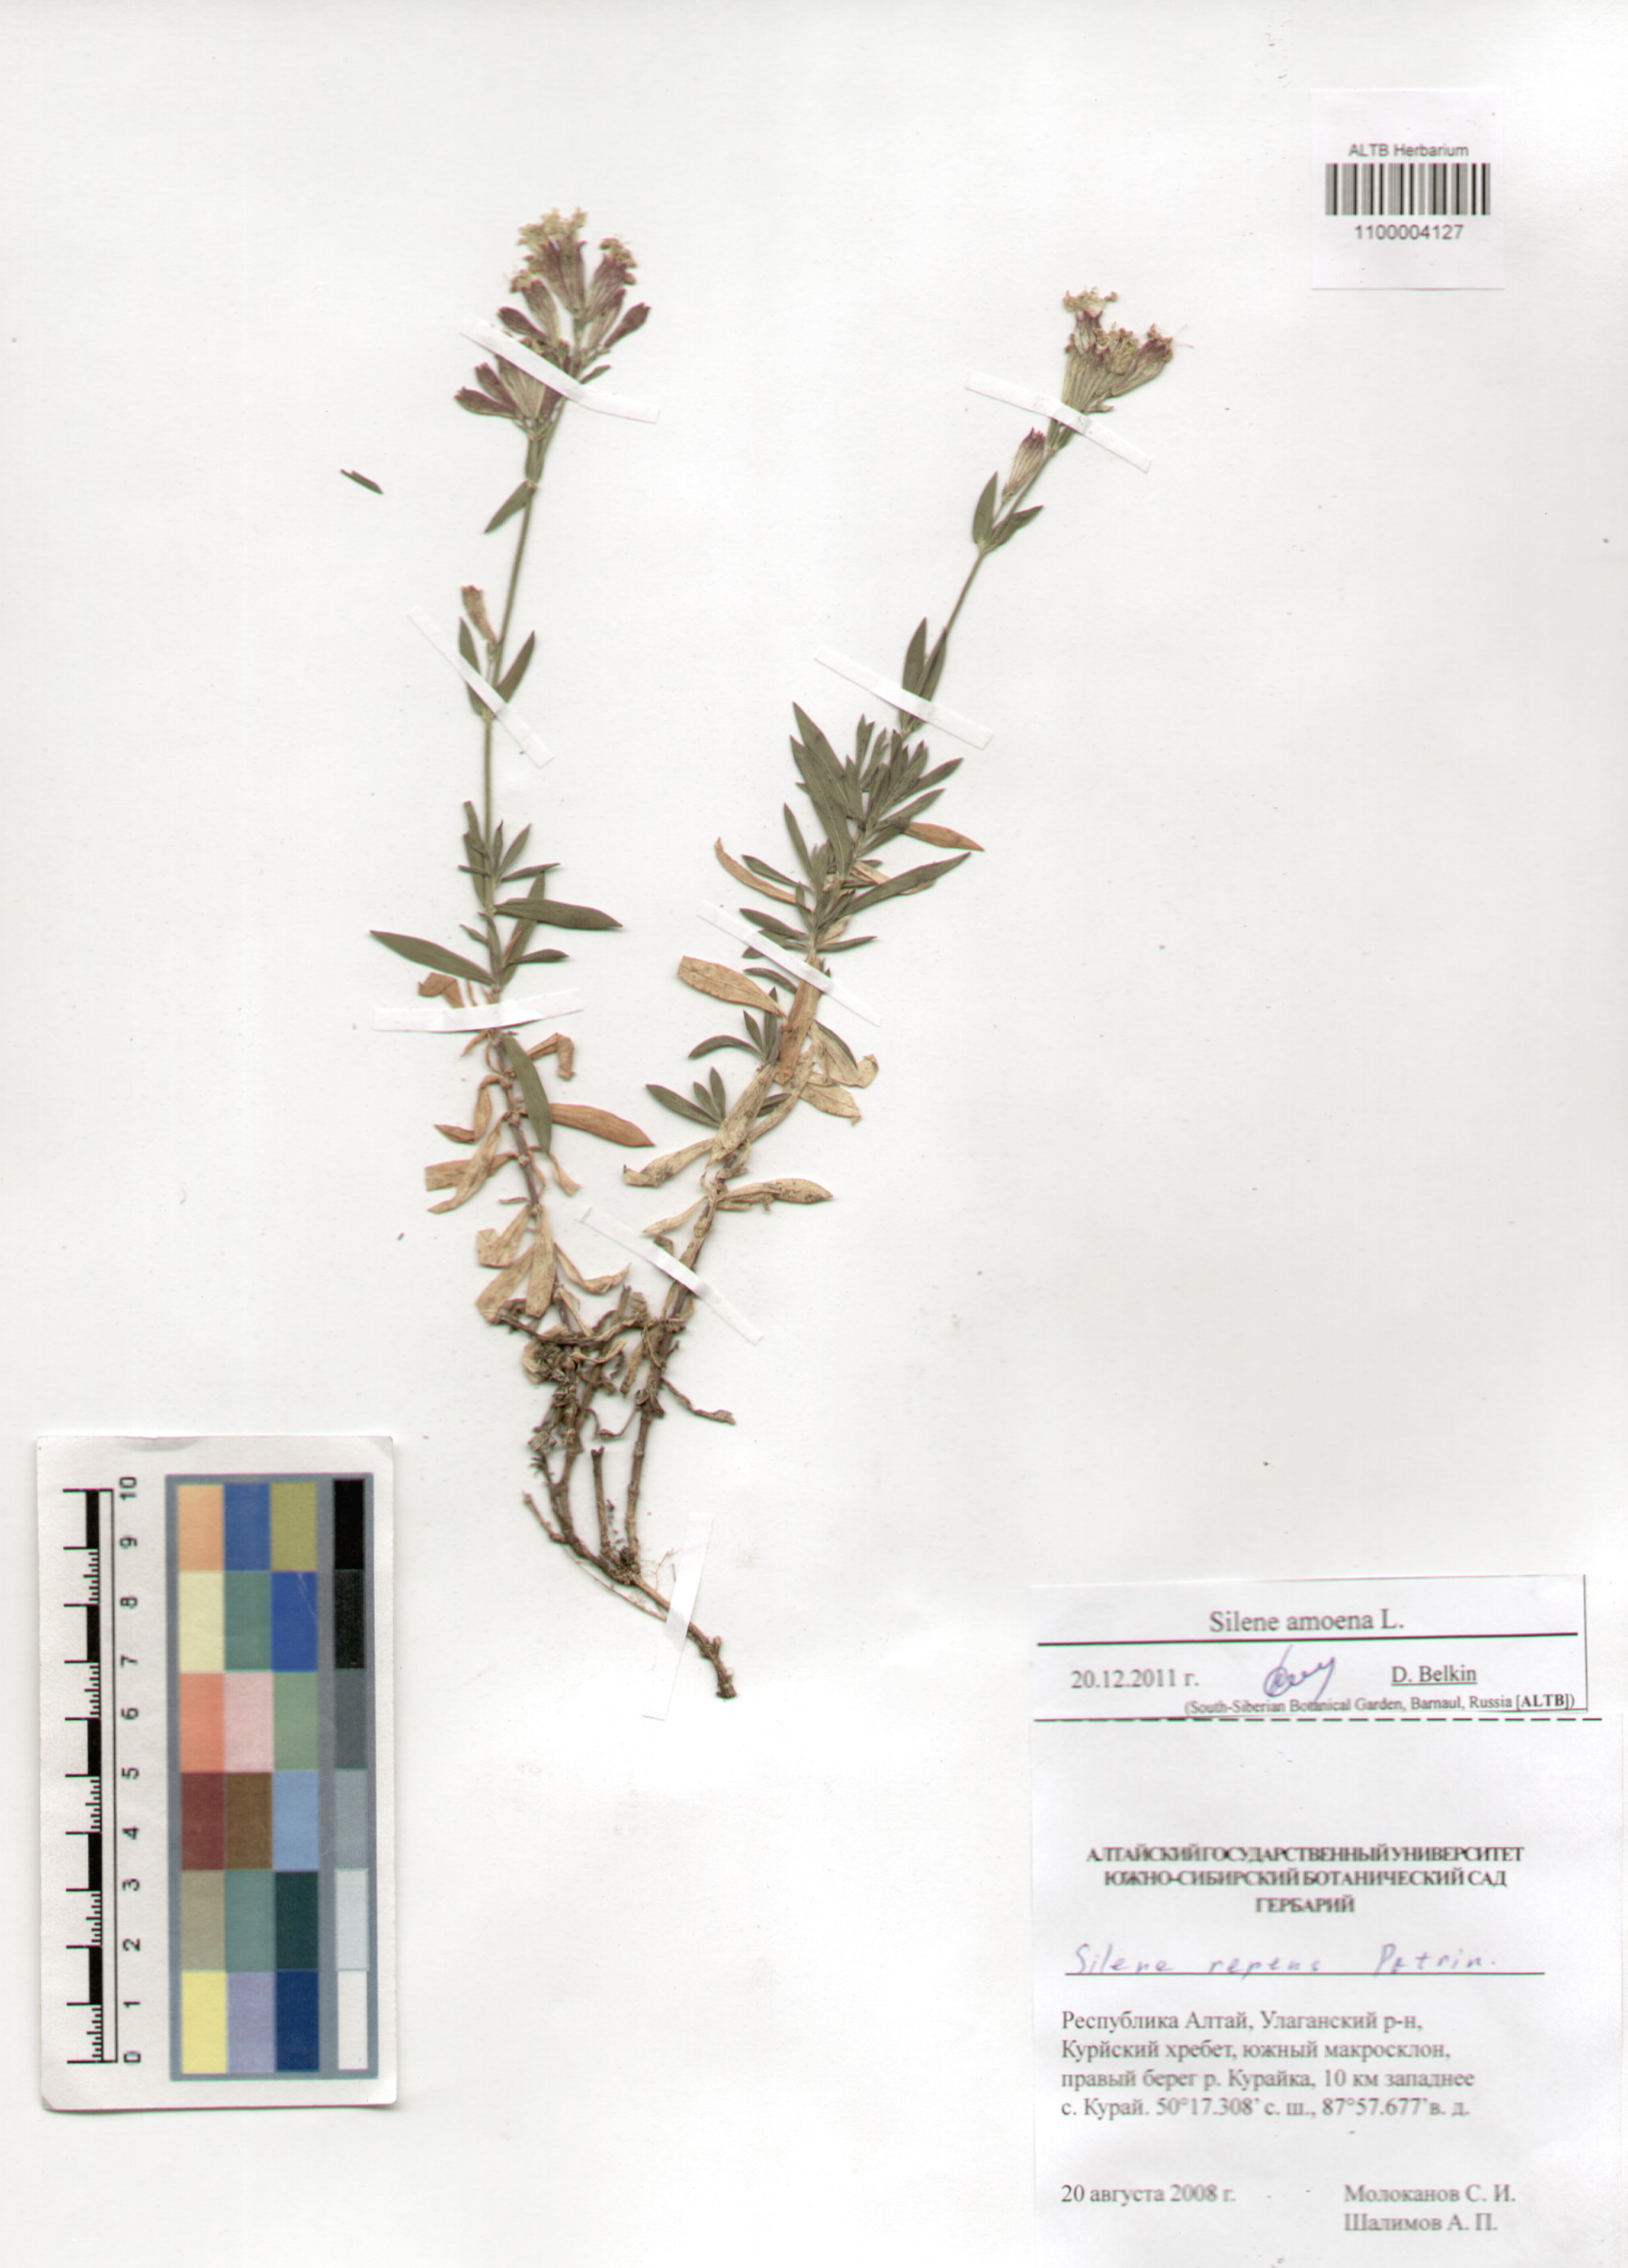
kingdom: Plantae
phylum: Tracheophyta
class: Magnoliopsida
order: Caryophyllales
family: Caryophyllaceae
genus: Silene
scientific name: Silene amoena
